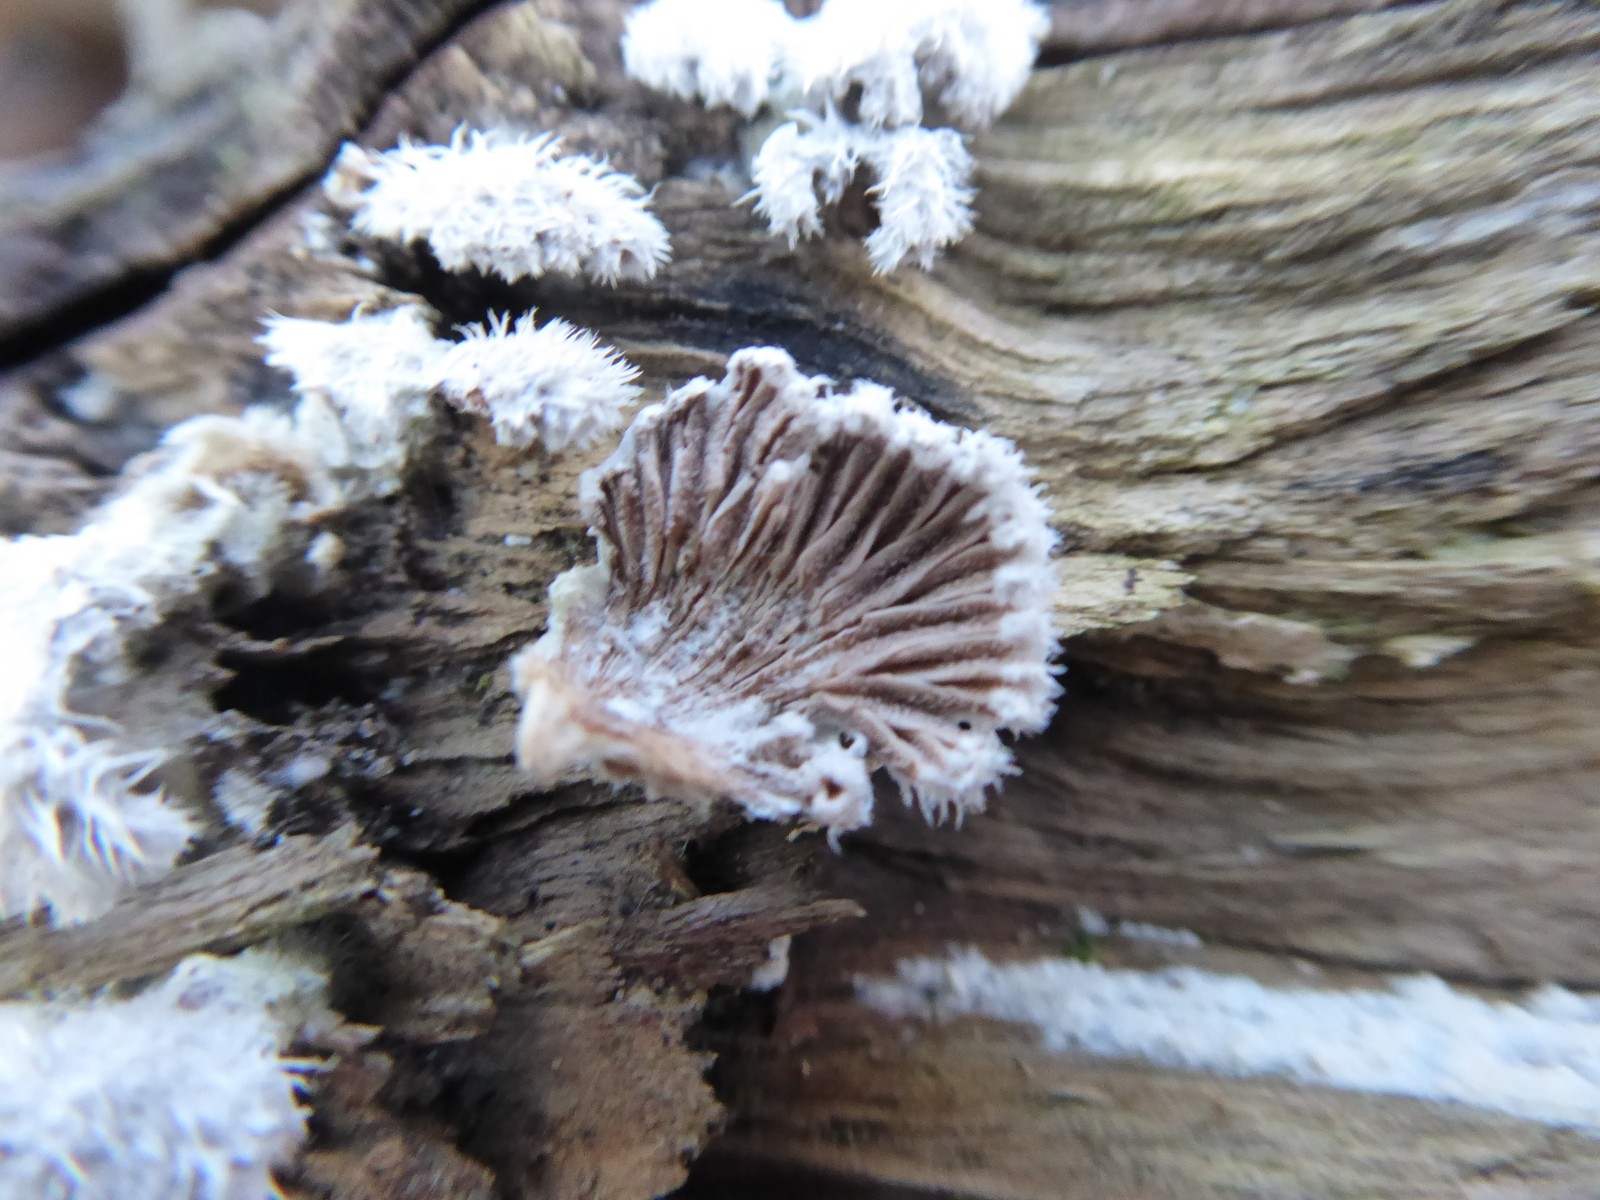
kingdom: Fungi
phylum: Basidiomycota
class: Agaricomycetes
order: Agaricales
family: Schizophyllaceae
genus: Schizophyllum
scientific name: Schizophyllum commune
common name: kløvblad
